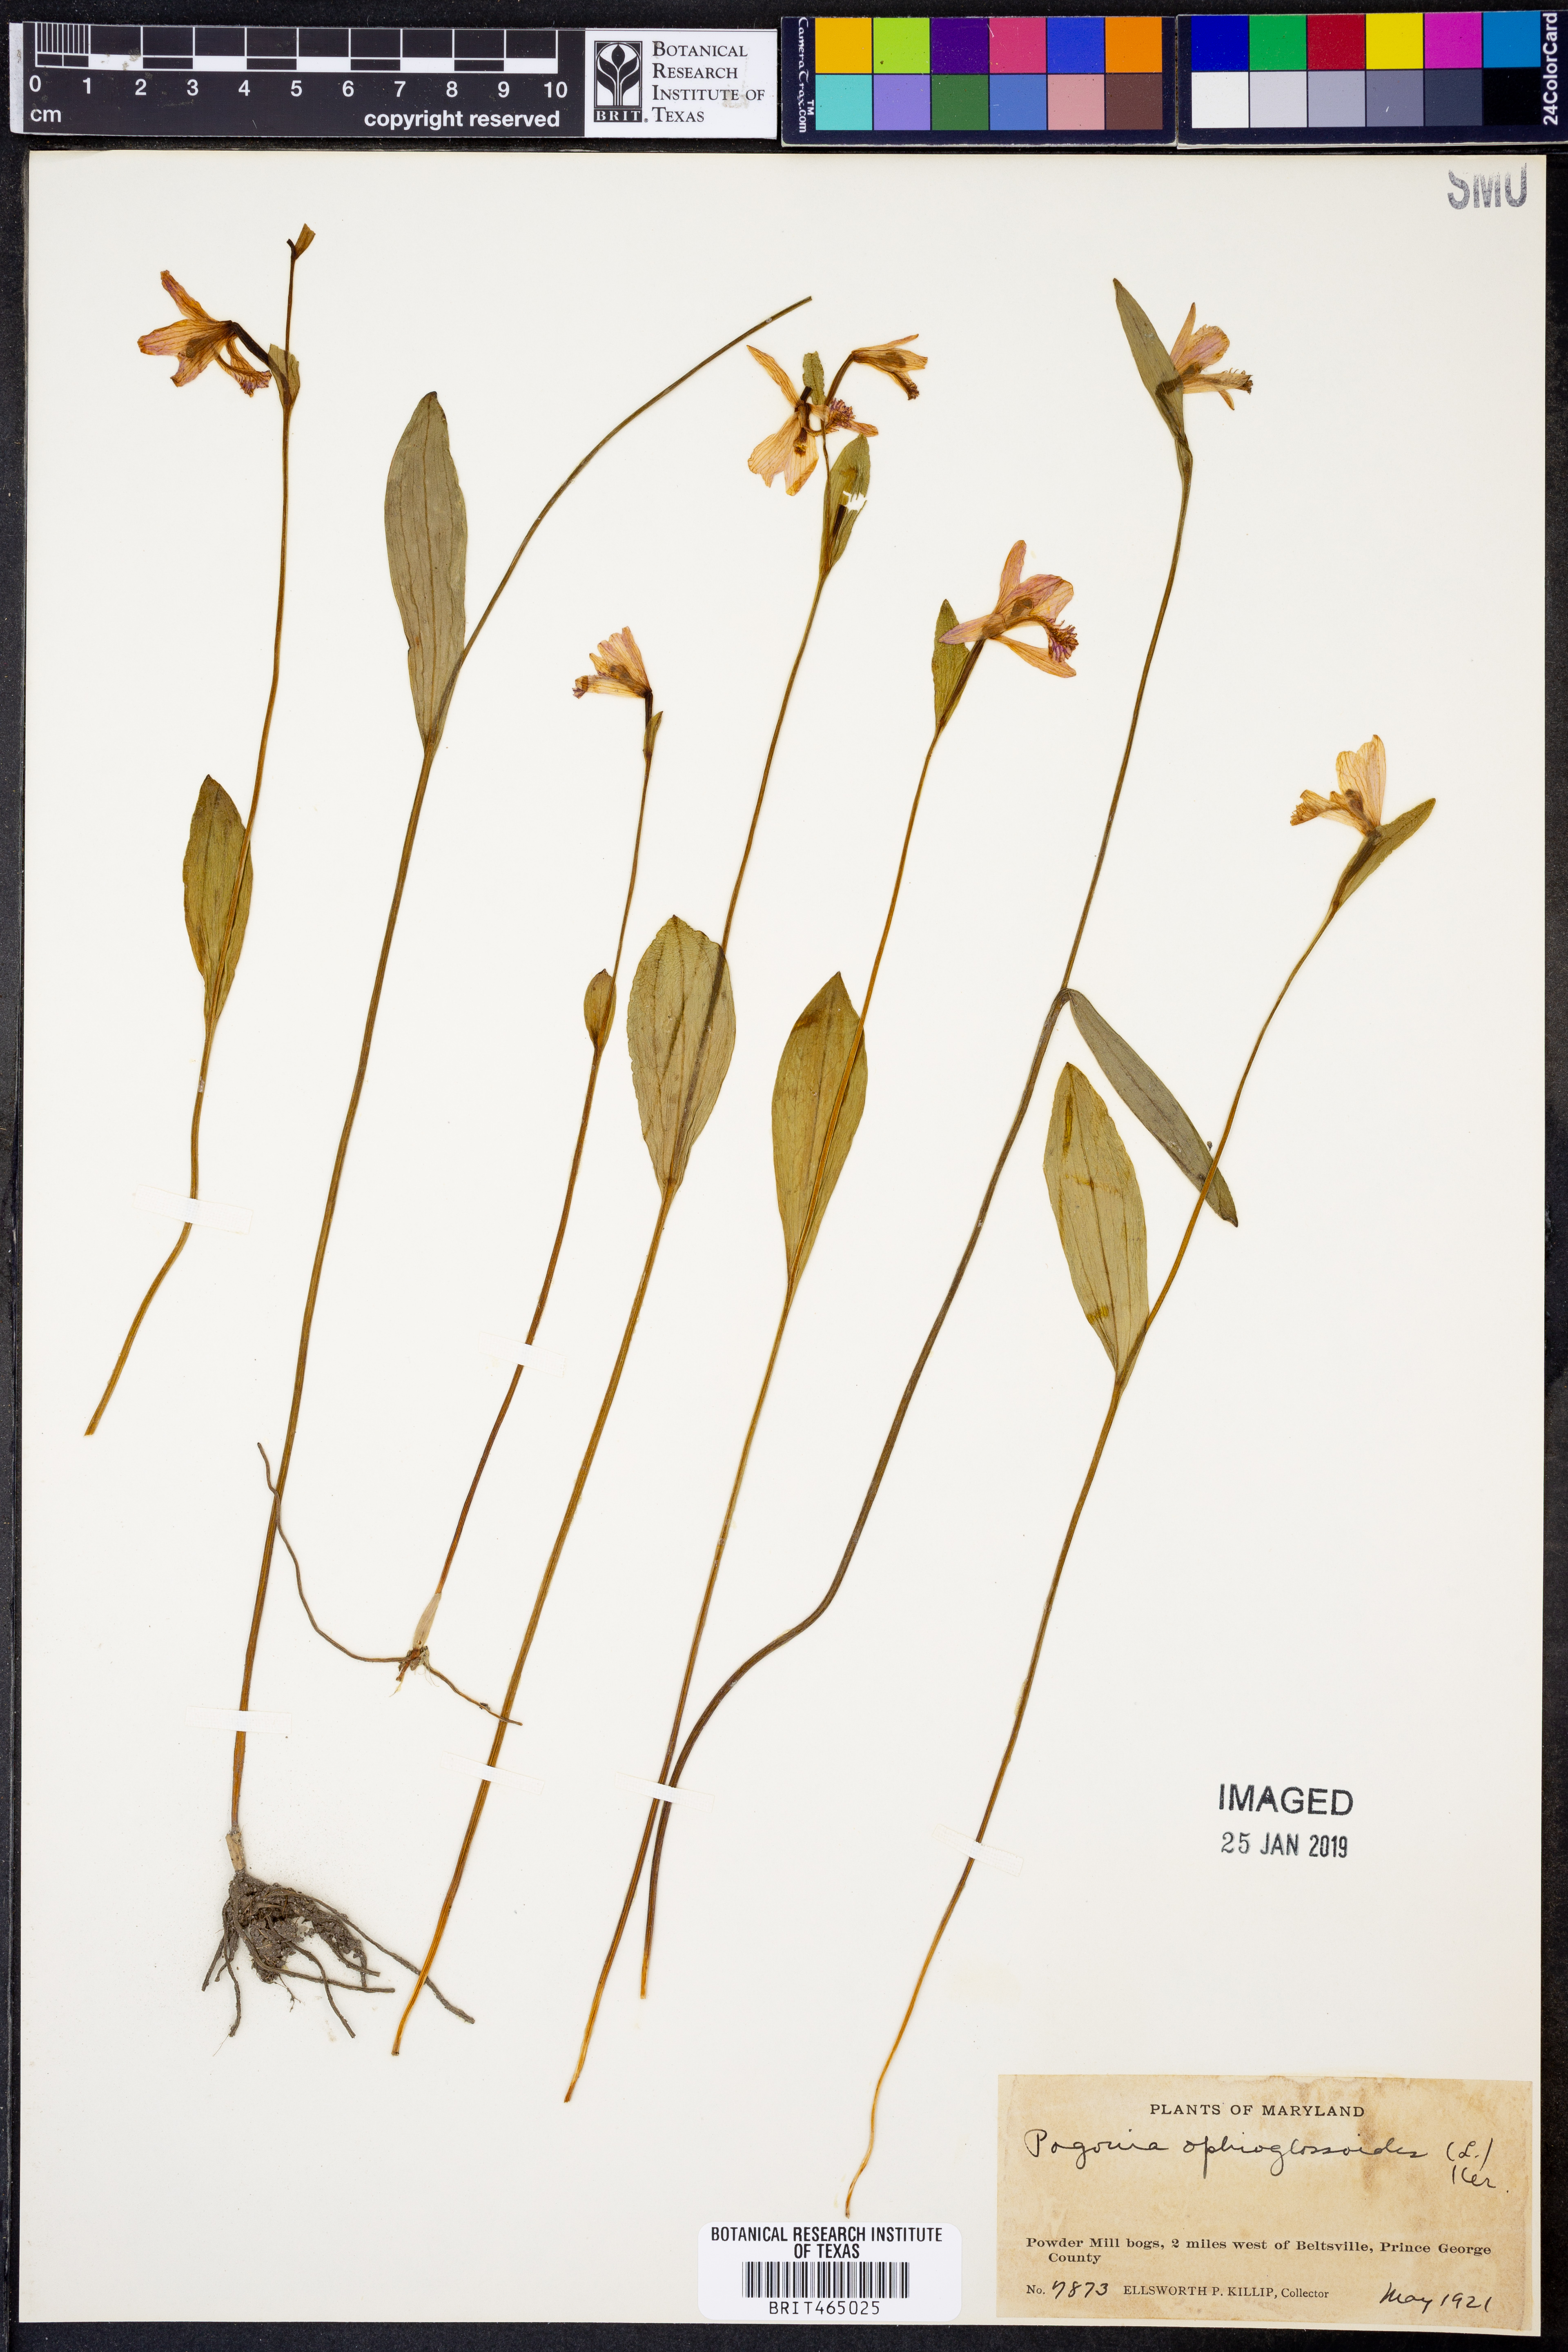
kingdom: Plantae
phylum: Tracheophyta
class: Liliopsida
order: Asparagales
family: Orchidaceae
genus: Pogonia
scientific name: Pogonia ophioglossoides
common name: Rose pogonia
